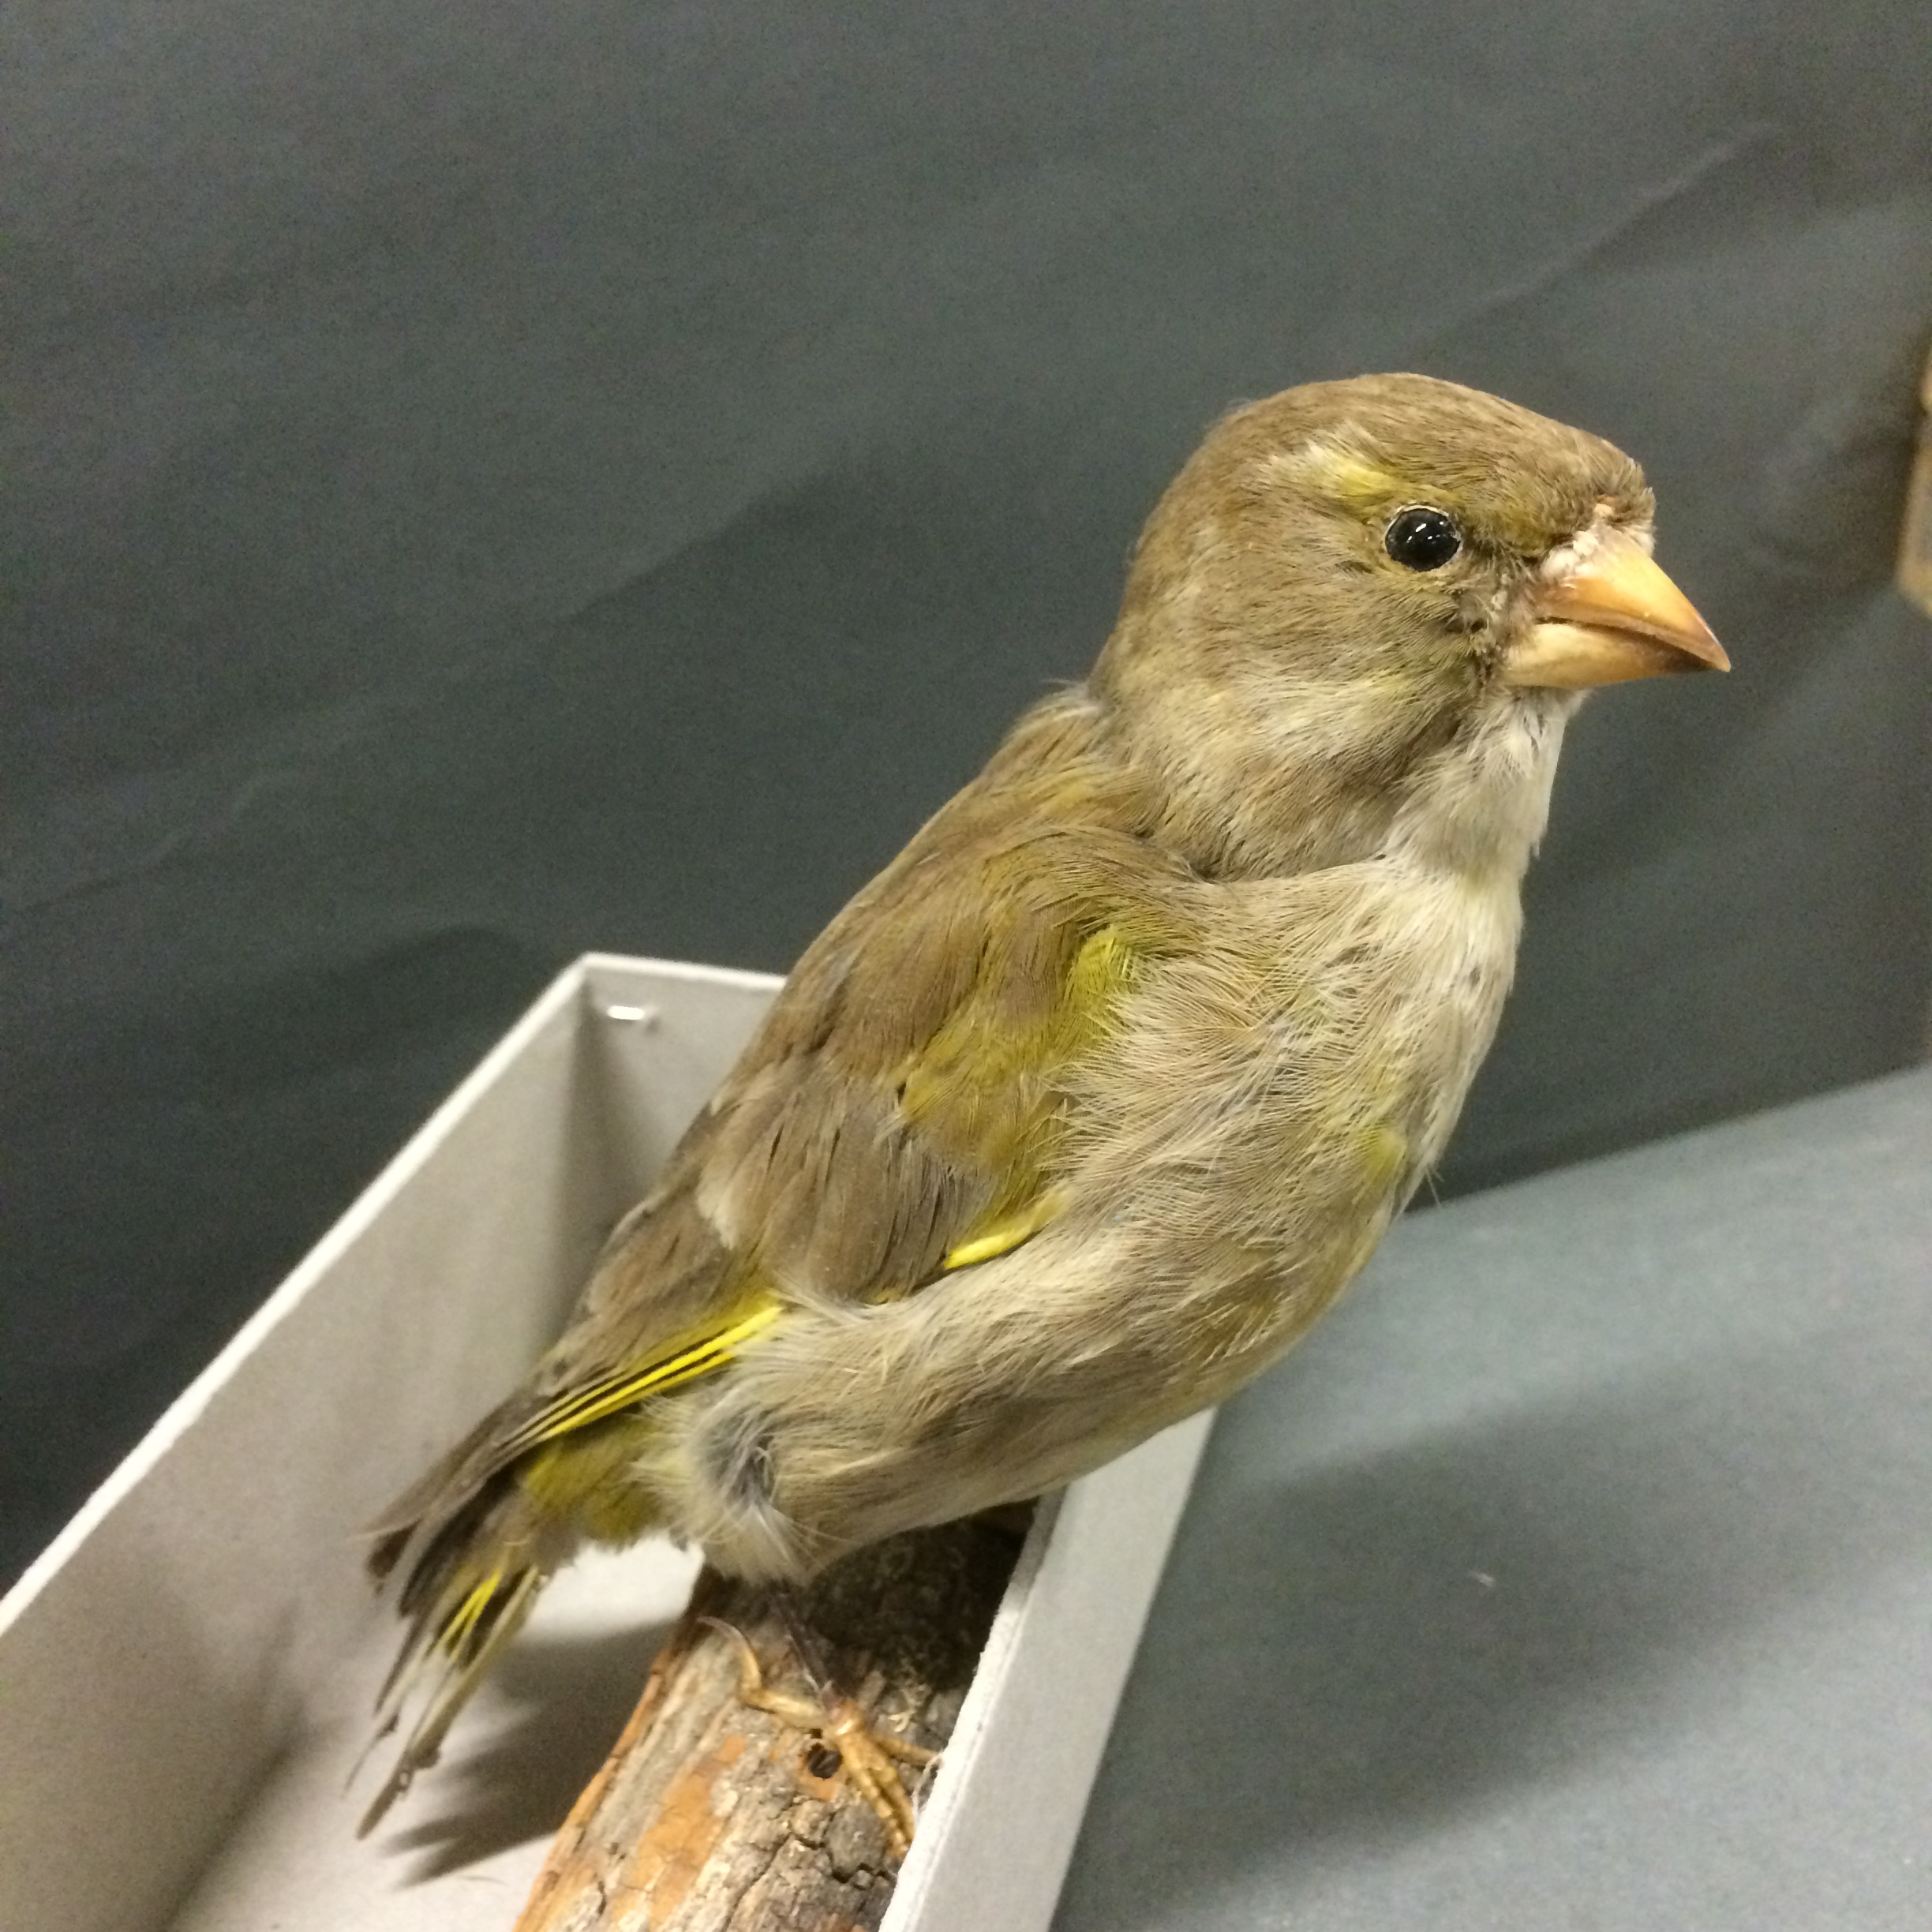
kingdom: Plantae
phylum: Tracheophyta
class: Liliopsida
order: Poales
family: Poaceae
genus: Chloris
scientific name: Chloris chloris
